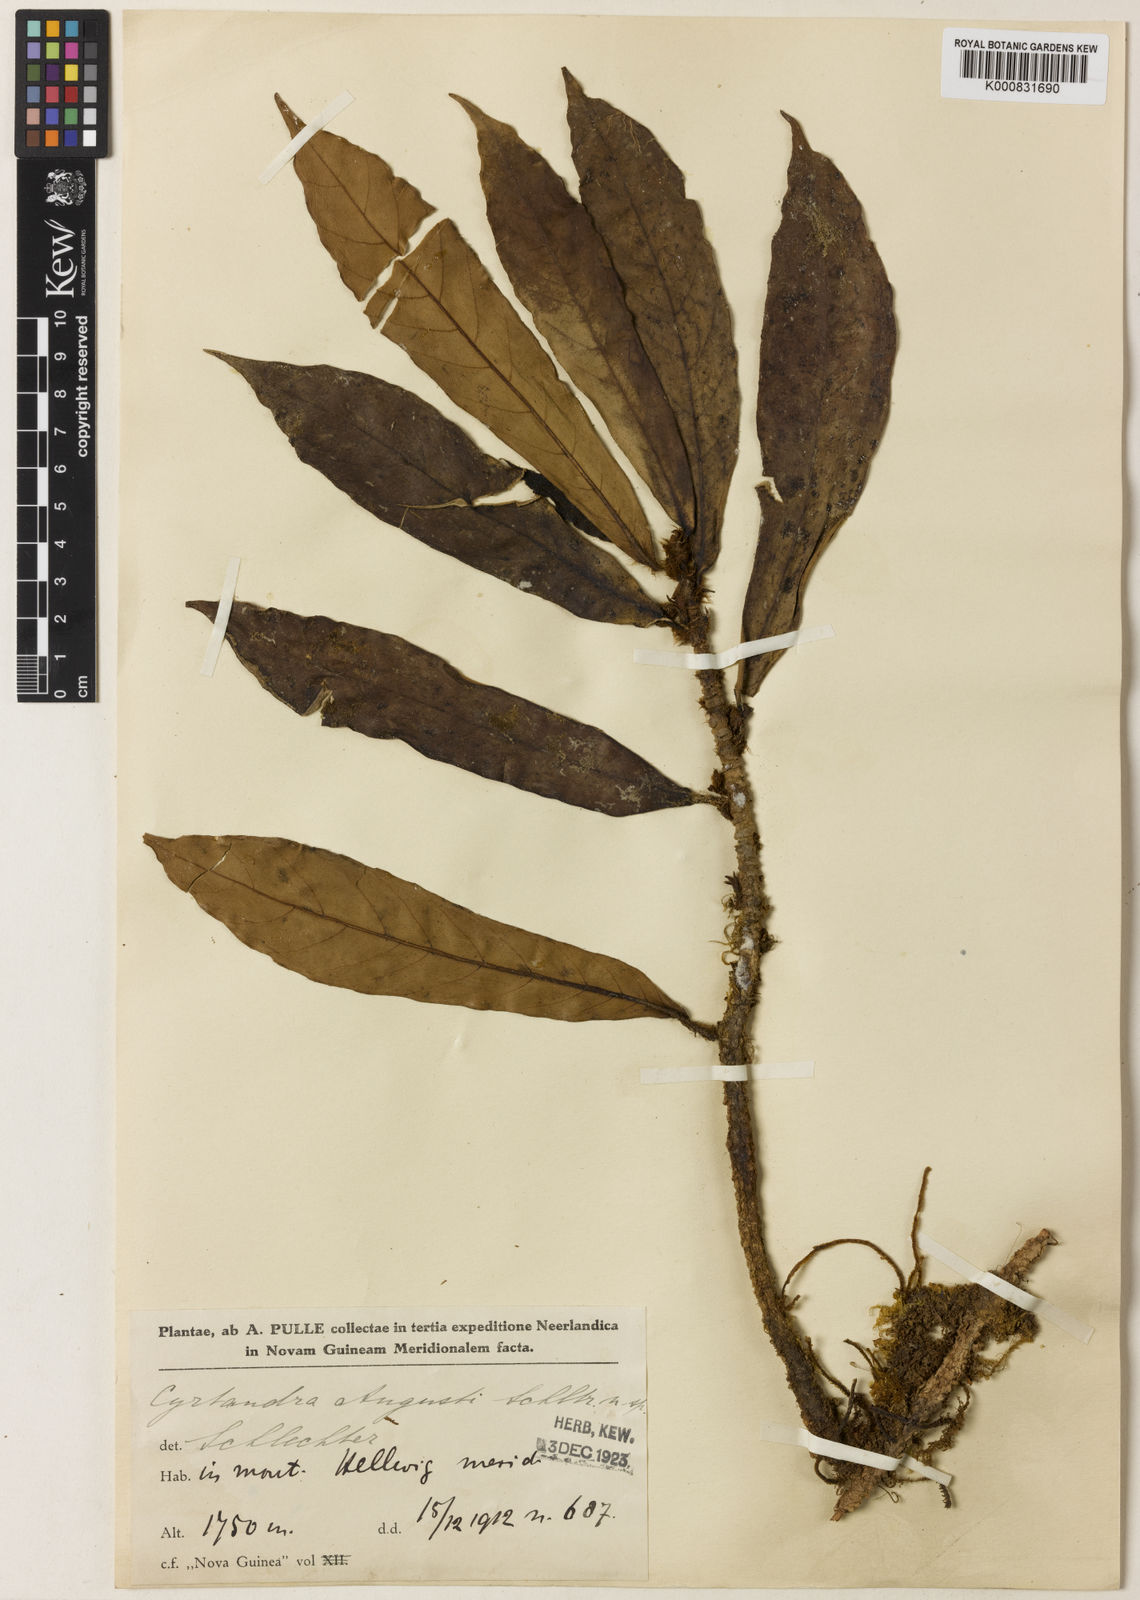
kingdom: Plantae
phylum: Tracheophyta
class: Magnoliopsida
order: Lamiales
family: Gesneriaceae
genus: Cyrtandra
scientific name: Cyrtandra augusti
